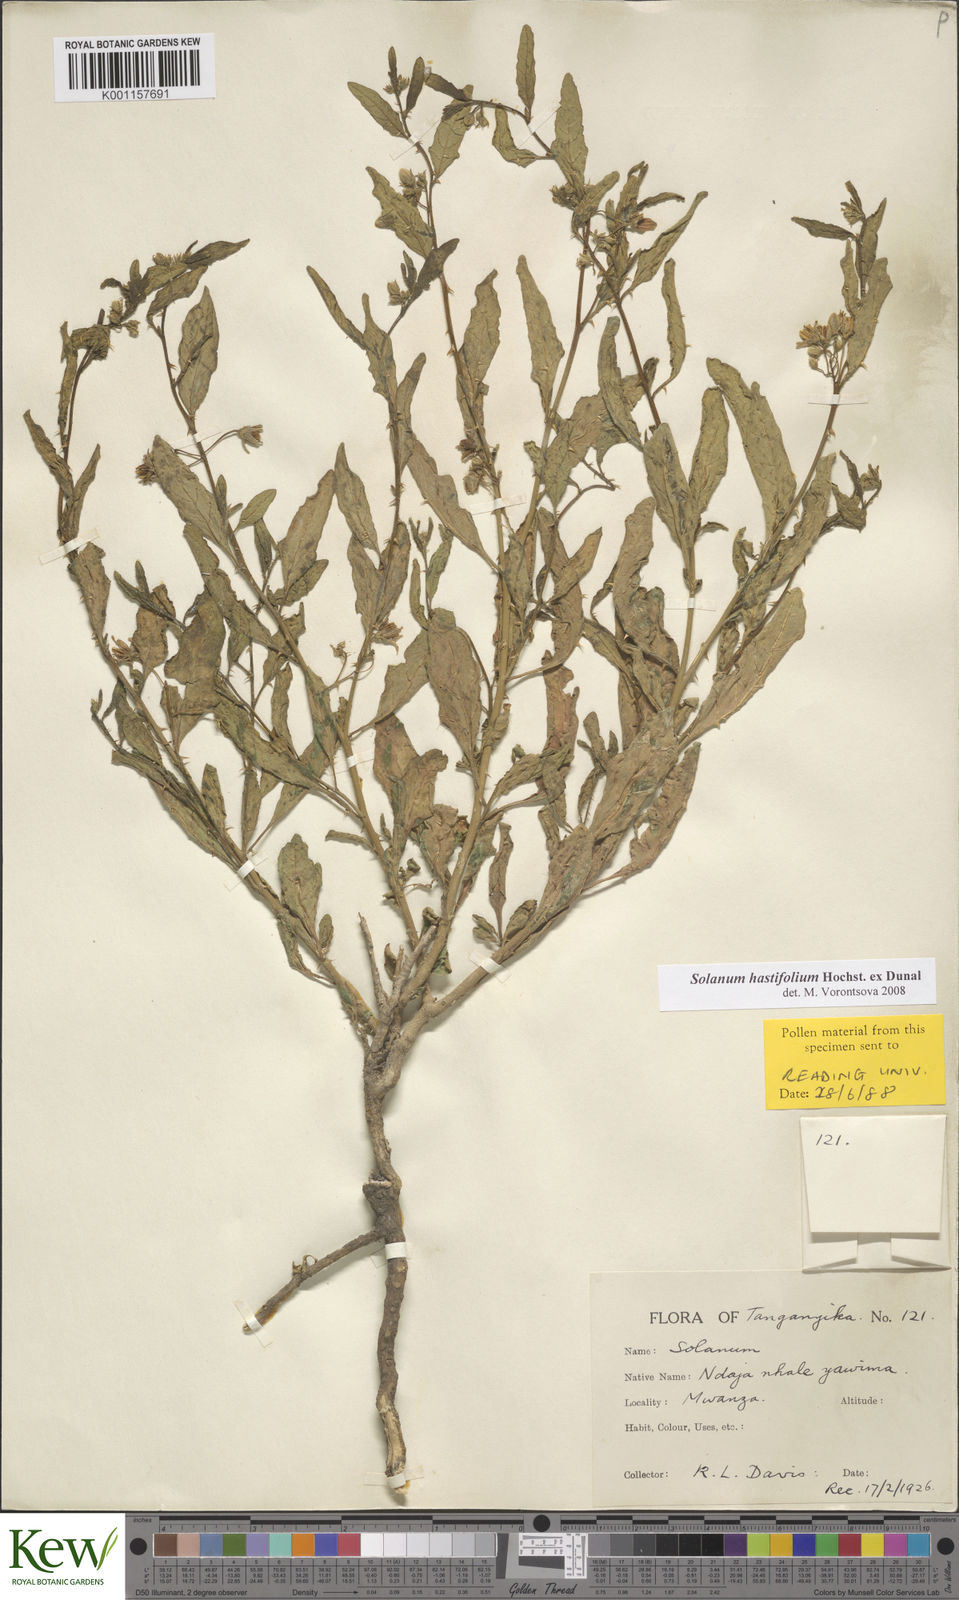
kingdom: Plantae
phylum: Tracheophyta
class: Magnoliopsida
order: Solanales
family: Solanaceae
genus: Solanum
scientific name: Solanum hastifolium
